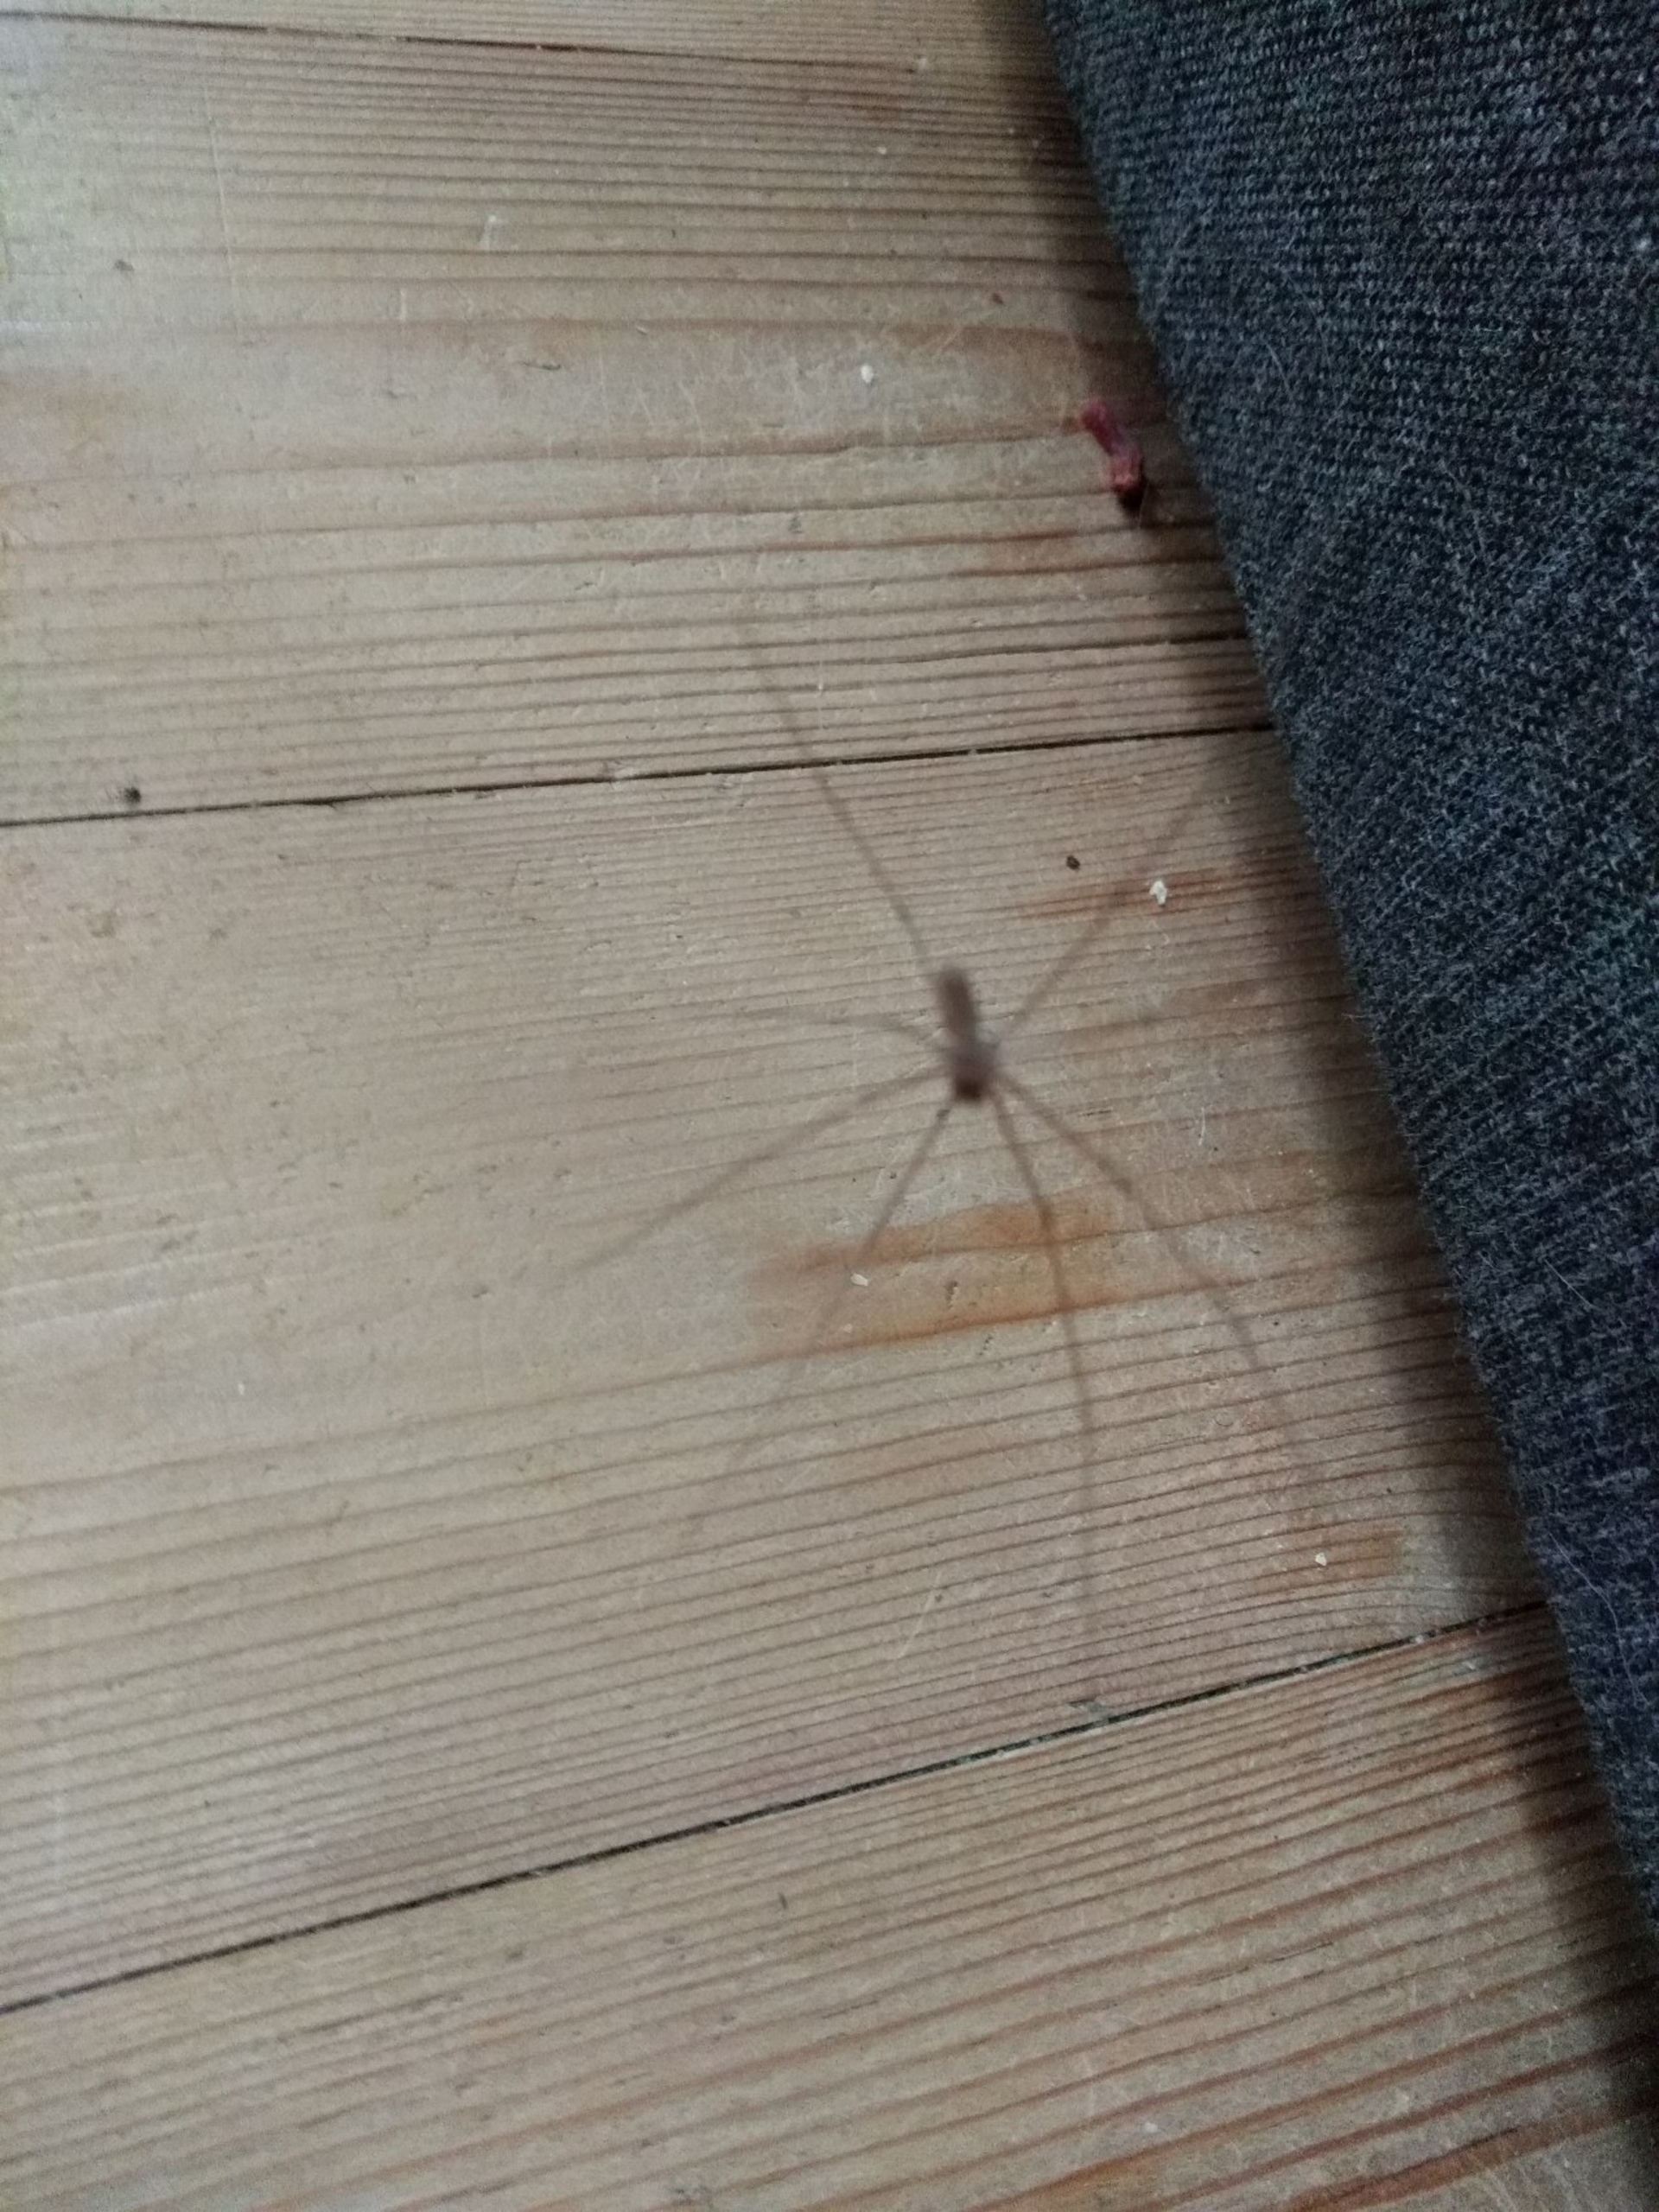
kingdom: Animalia
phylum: Arthropoda
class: Arachnida
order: Araneae
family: Pholcidae
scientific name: Pholcidae
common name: Mejeredderkopper
